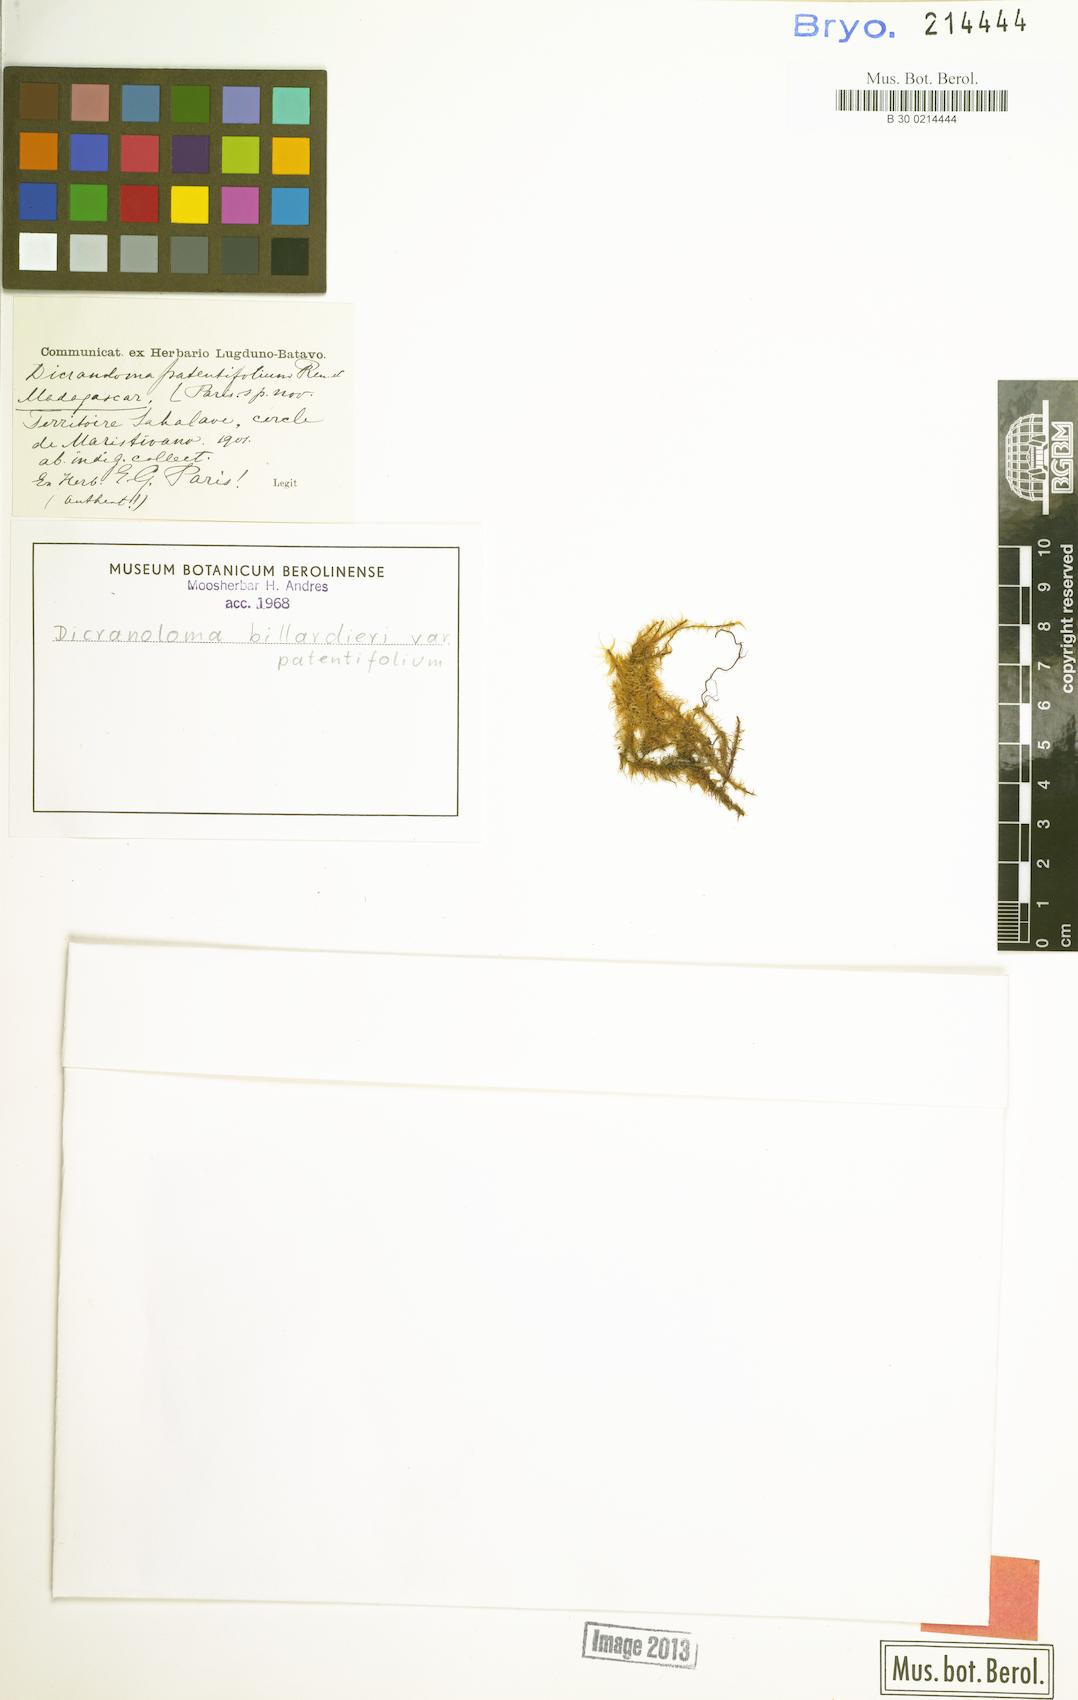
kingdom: Plantae
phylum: Bryophyta
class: Bryopsida
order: Dicranales
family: Dicranaceae
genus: Dicranoloma
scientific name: Dicranoloma billardieri
